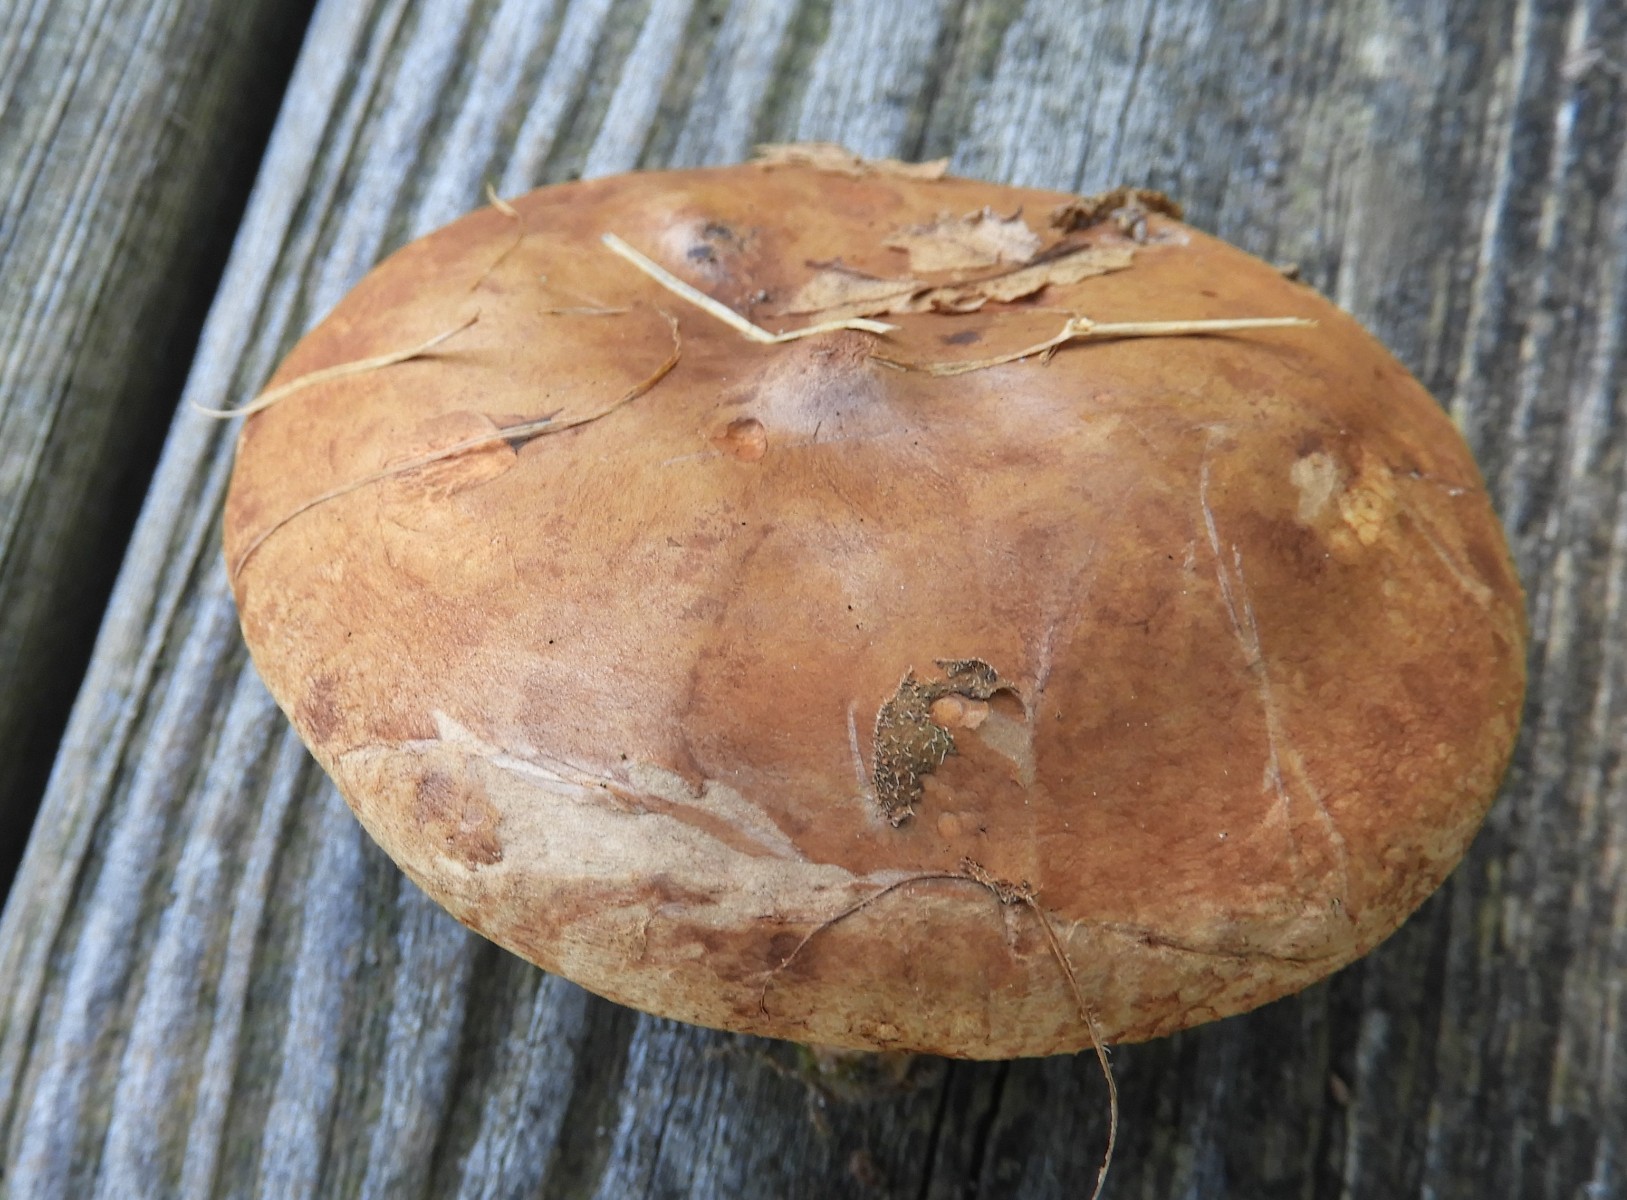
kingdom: Fungi
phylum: Basidiomycota
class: Agaricomycetes
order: Boletales
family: Paxillaceae
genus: Paxillus
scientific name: Paxillus involutus
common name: almindelig netbladhat
